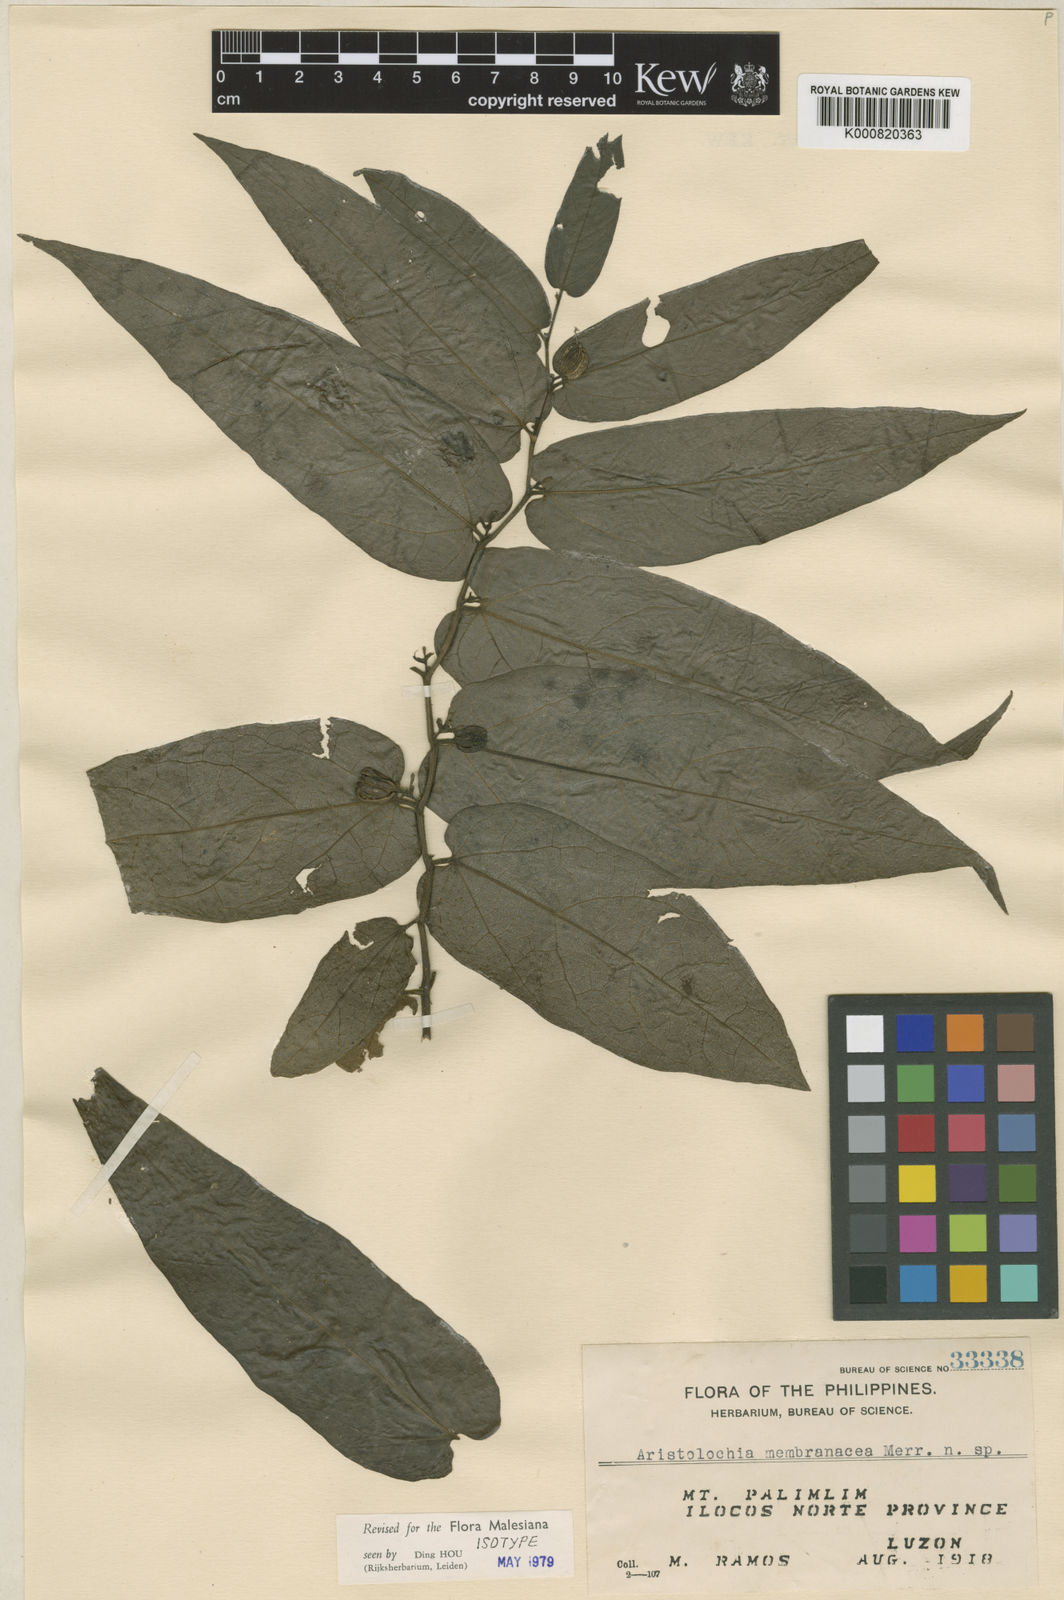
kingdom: Plantae
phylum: Tracheophyta
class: Magnoliopsida
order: Piperales
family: Aristolochiaceae
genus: Aristolochia
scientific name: Aristolochia sericea
